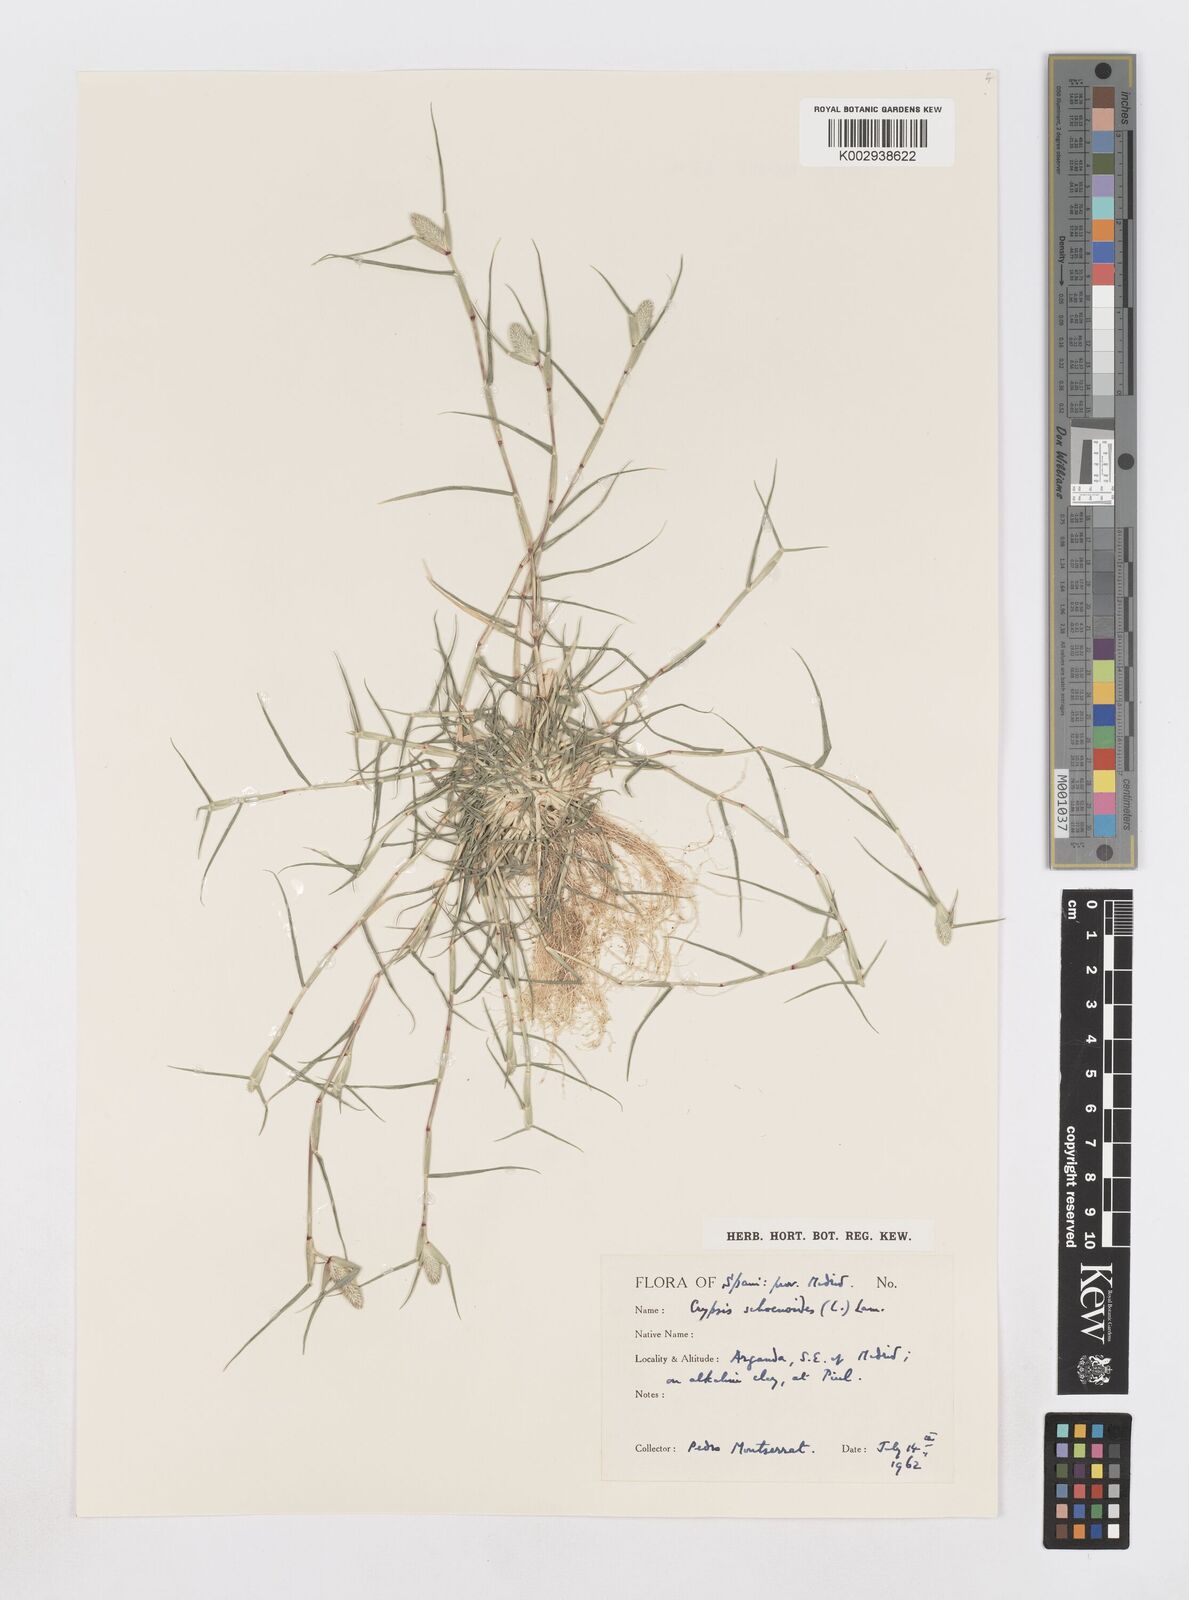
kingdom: Plantae
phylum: Tracheophyta
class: Liliopsida
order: Poales
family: Poaceae
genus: Sporobolus
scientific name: Sporobolus schoenoides
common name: Rush-like timothy
